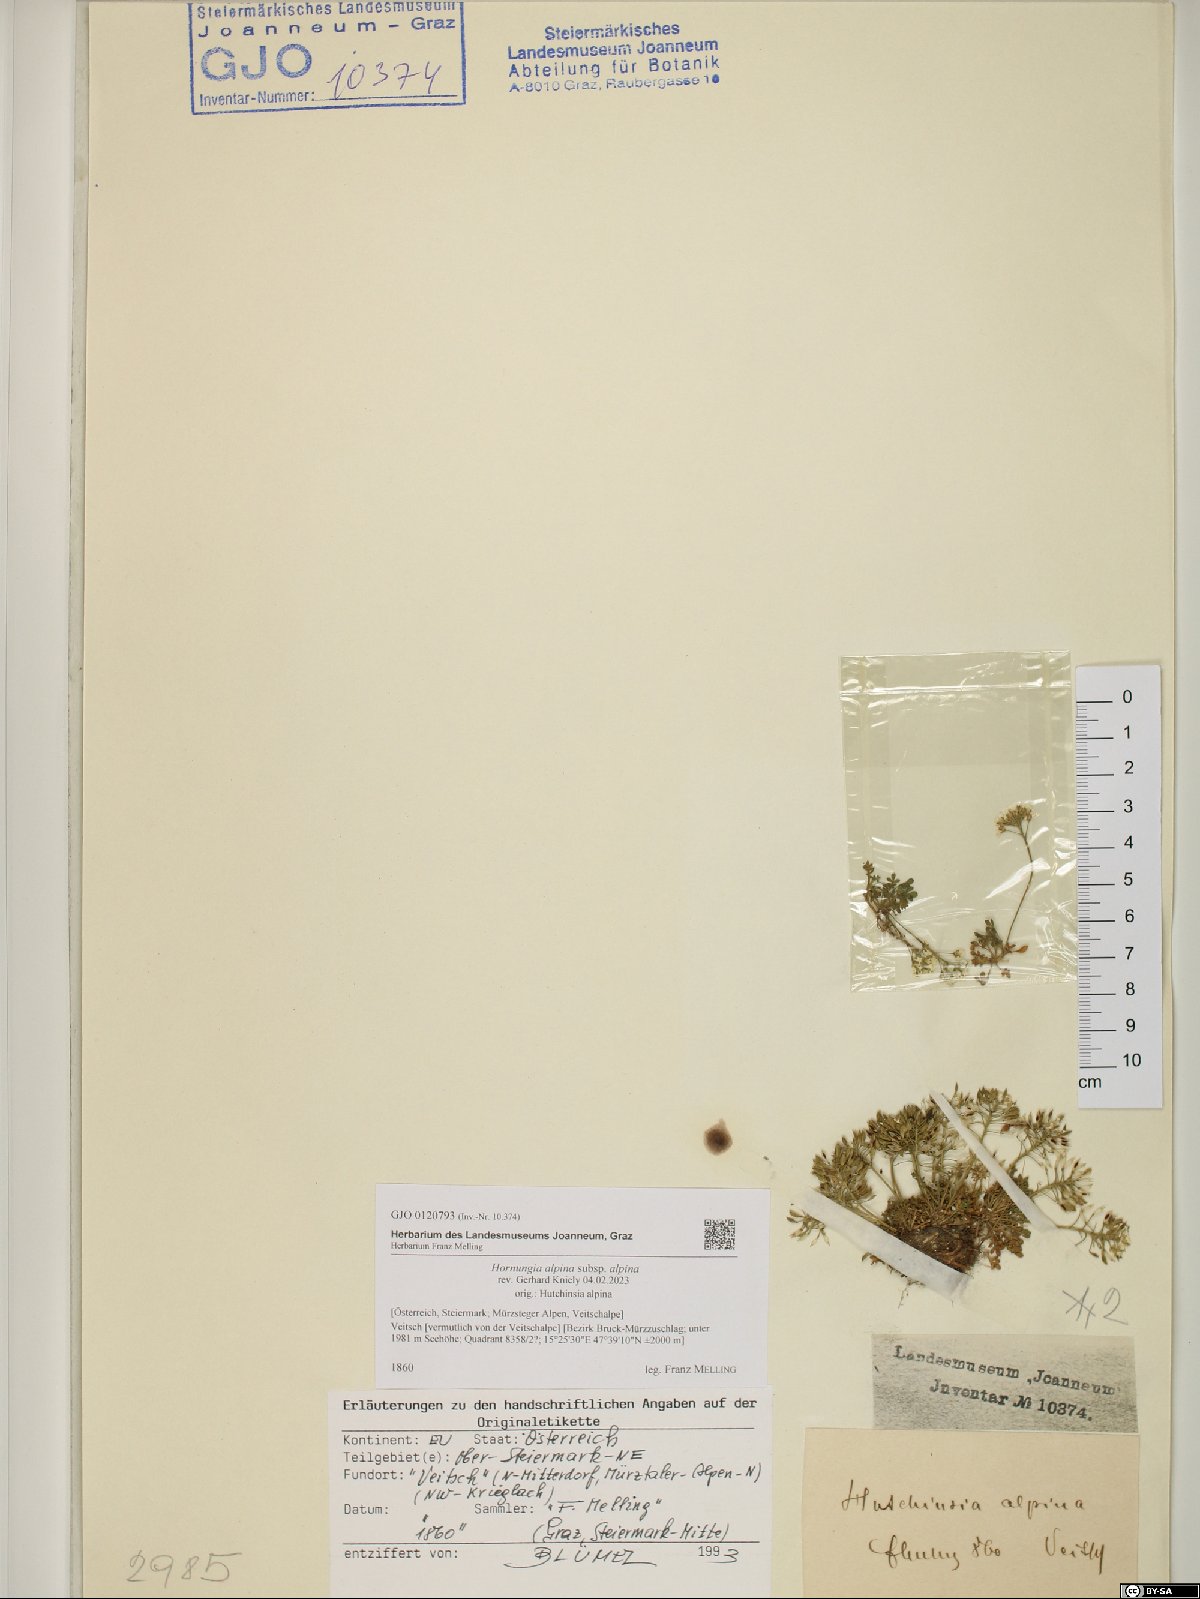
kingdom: Plantae
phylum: Tracheophyta
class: Magnoliopsida
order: Brassicales
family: Brassicaceae
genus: Hornungia
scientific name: Hornungia alpina
